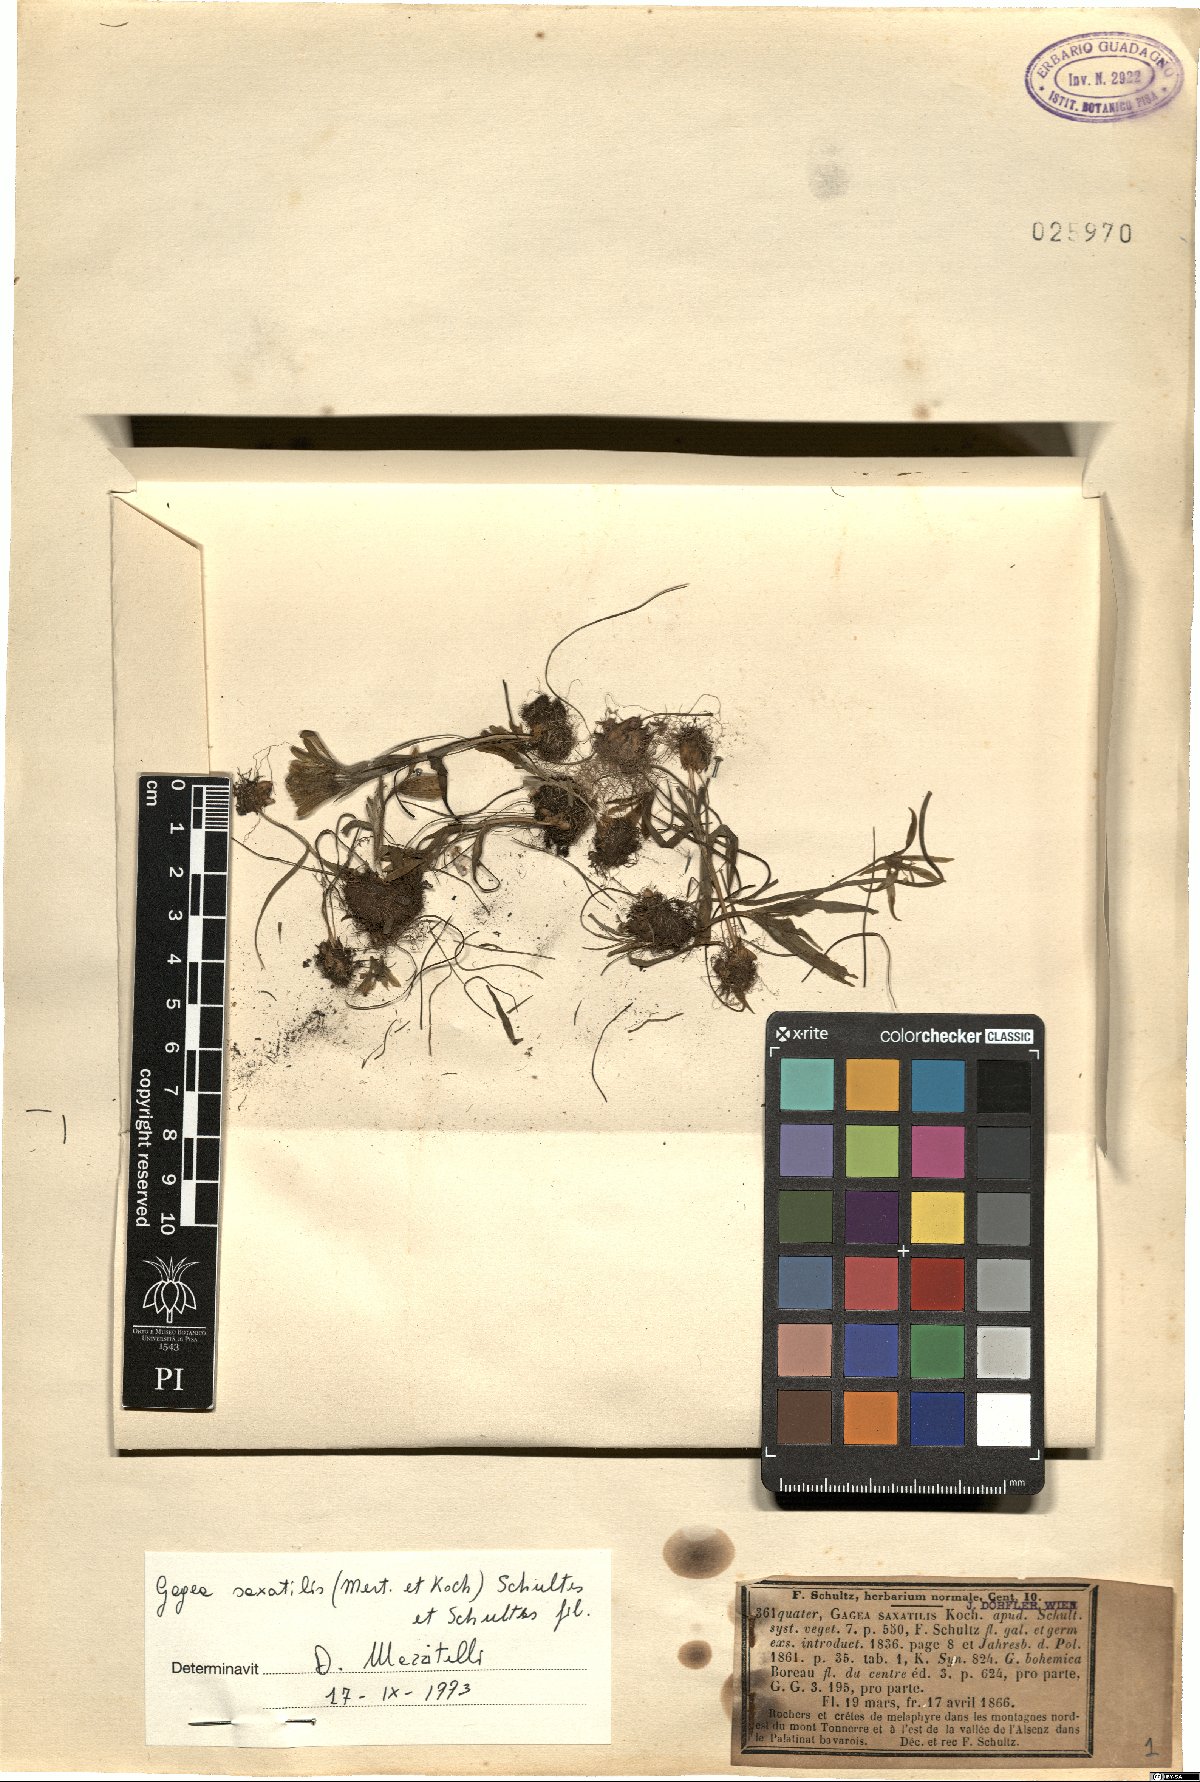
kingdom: Plantae
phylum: Tracheophyta
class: Liliopsida
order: Liliales
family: Liliaceae
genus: Gagea
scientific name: Gagea bohemica
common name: Early star-of-bethlehem
